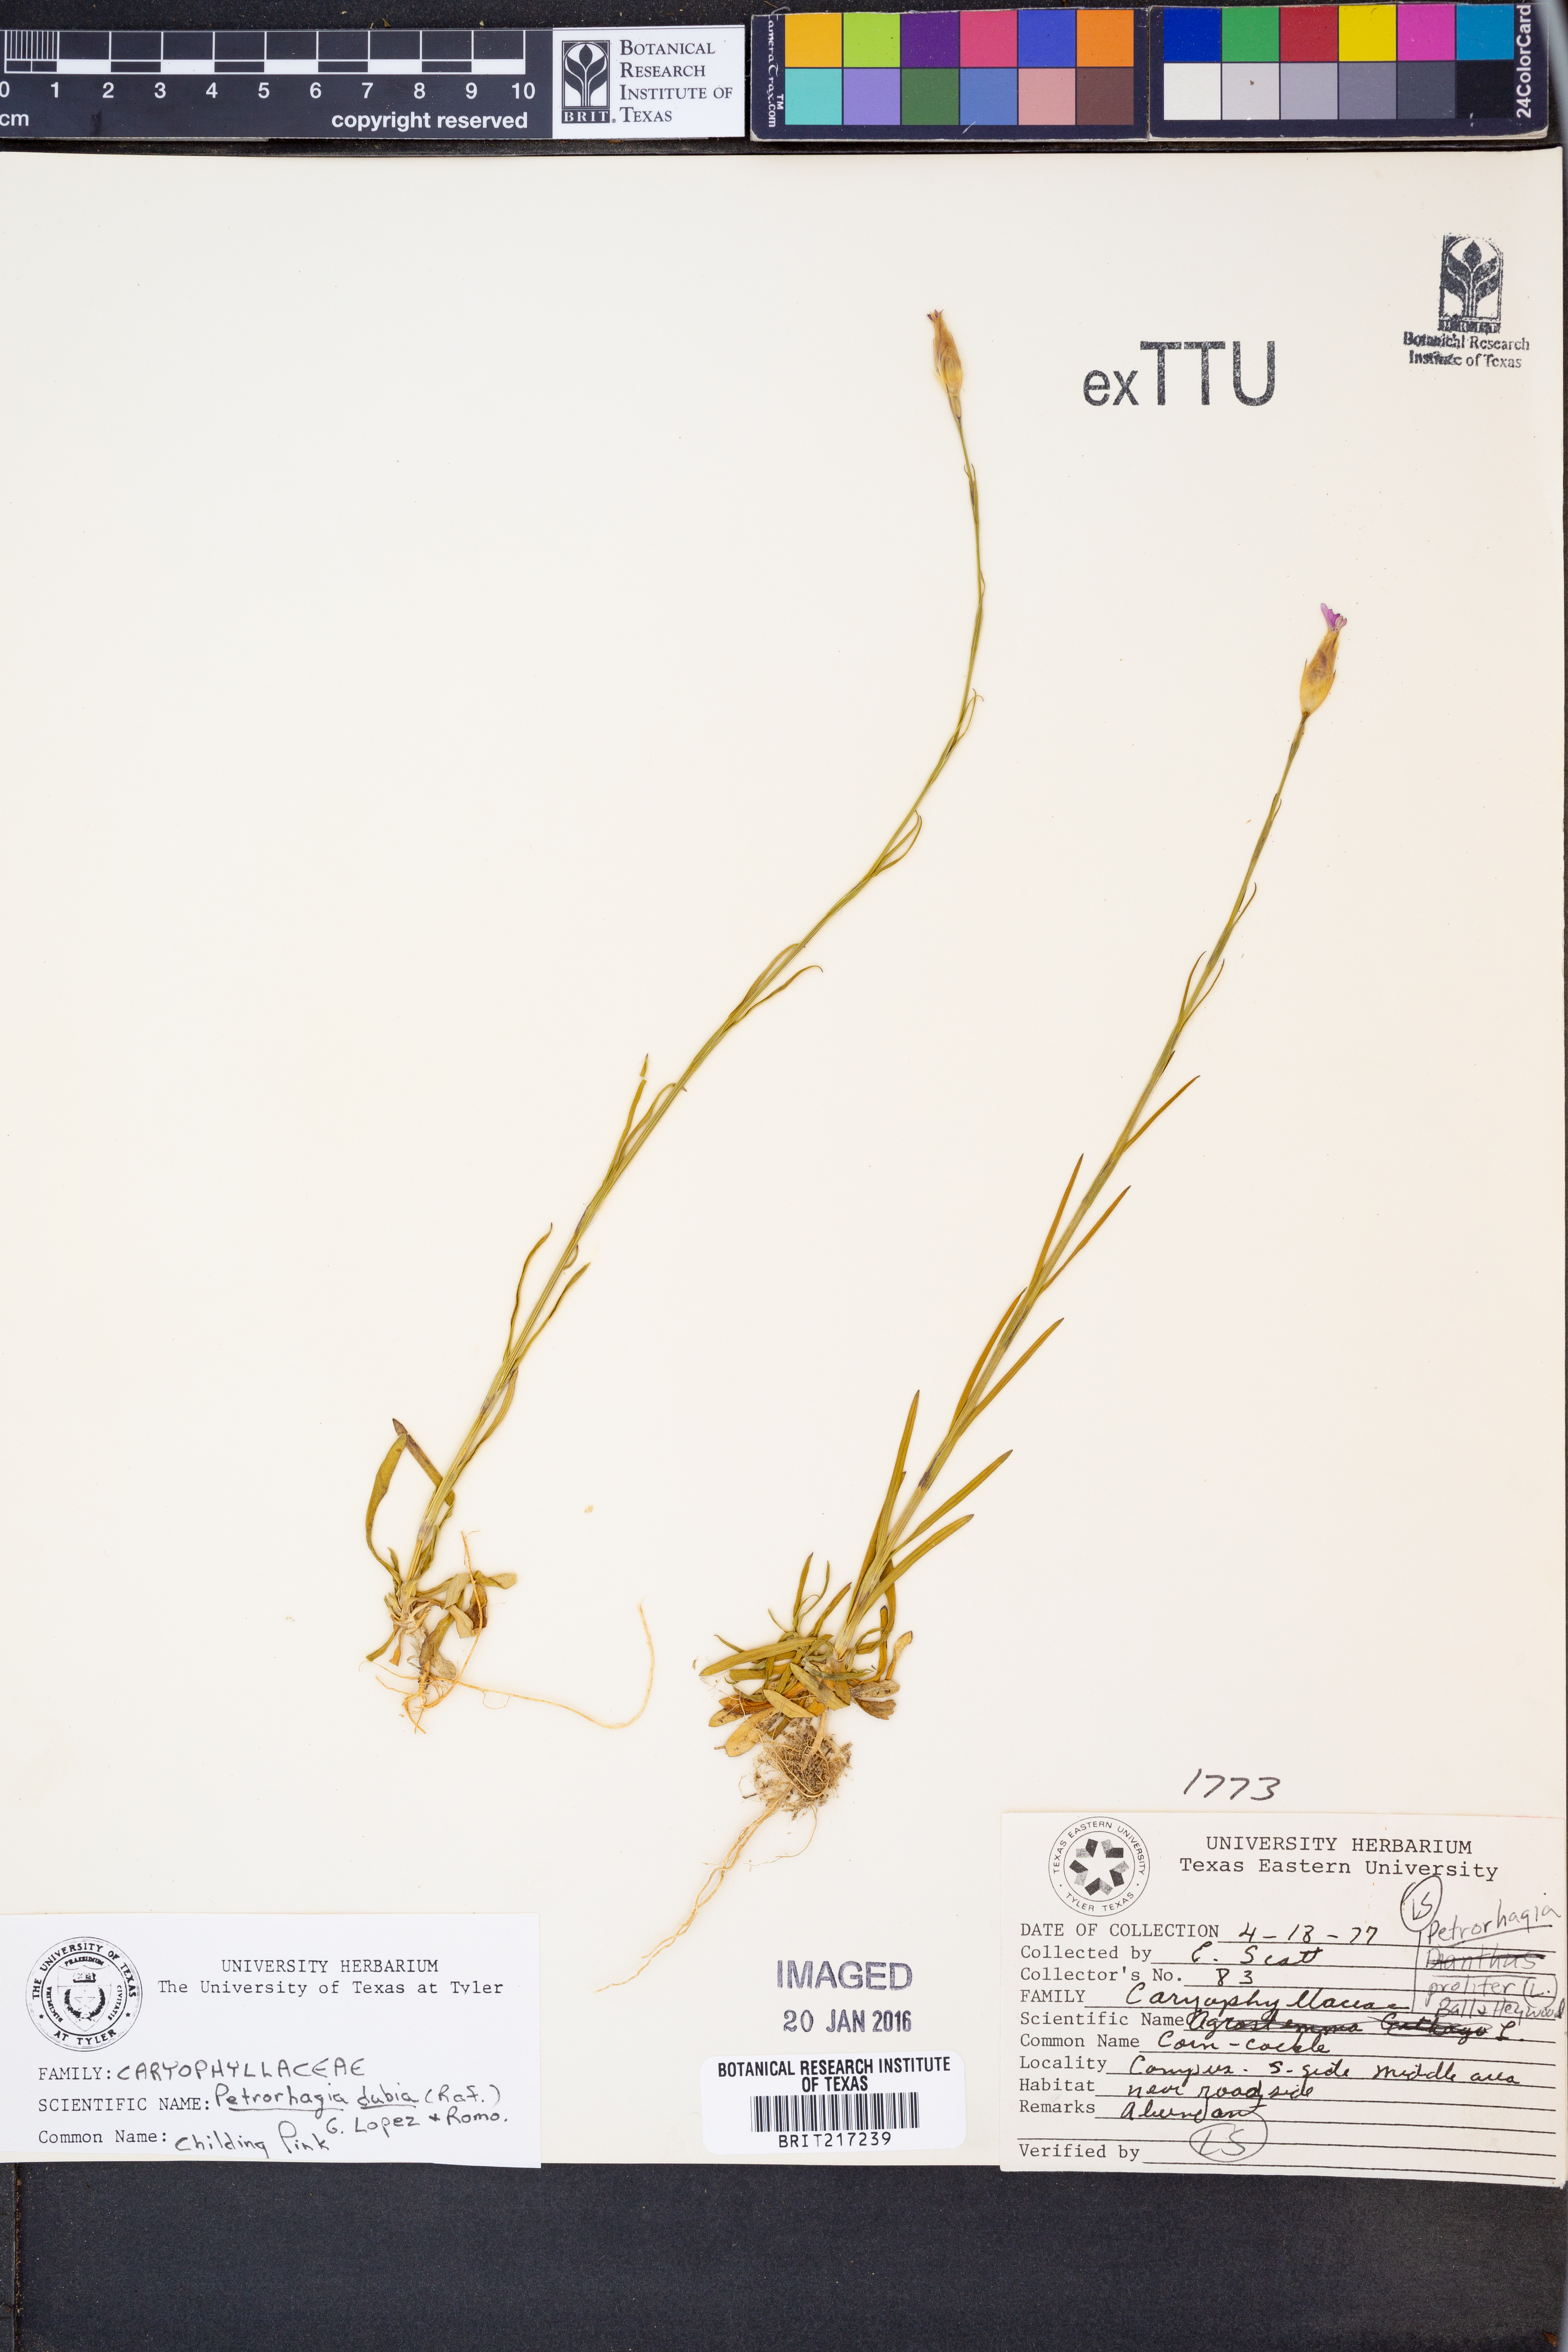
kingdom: Plantae
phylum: Tracheophyta
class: Magnoliopsida
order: Caryophyllales
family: Caryophyllaceae
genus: Petrorhagia
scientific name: Petrorhagia dubia
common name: Hairypink
